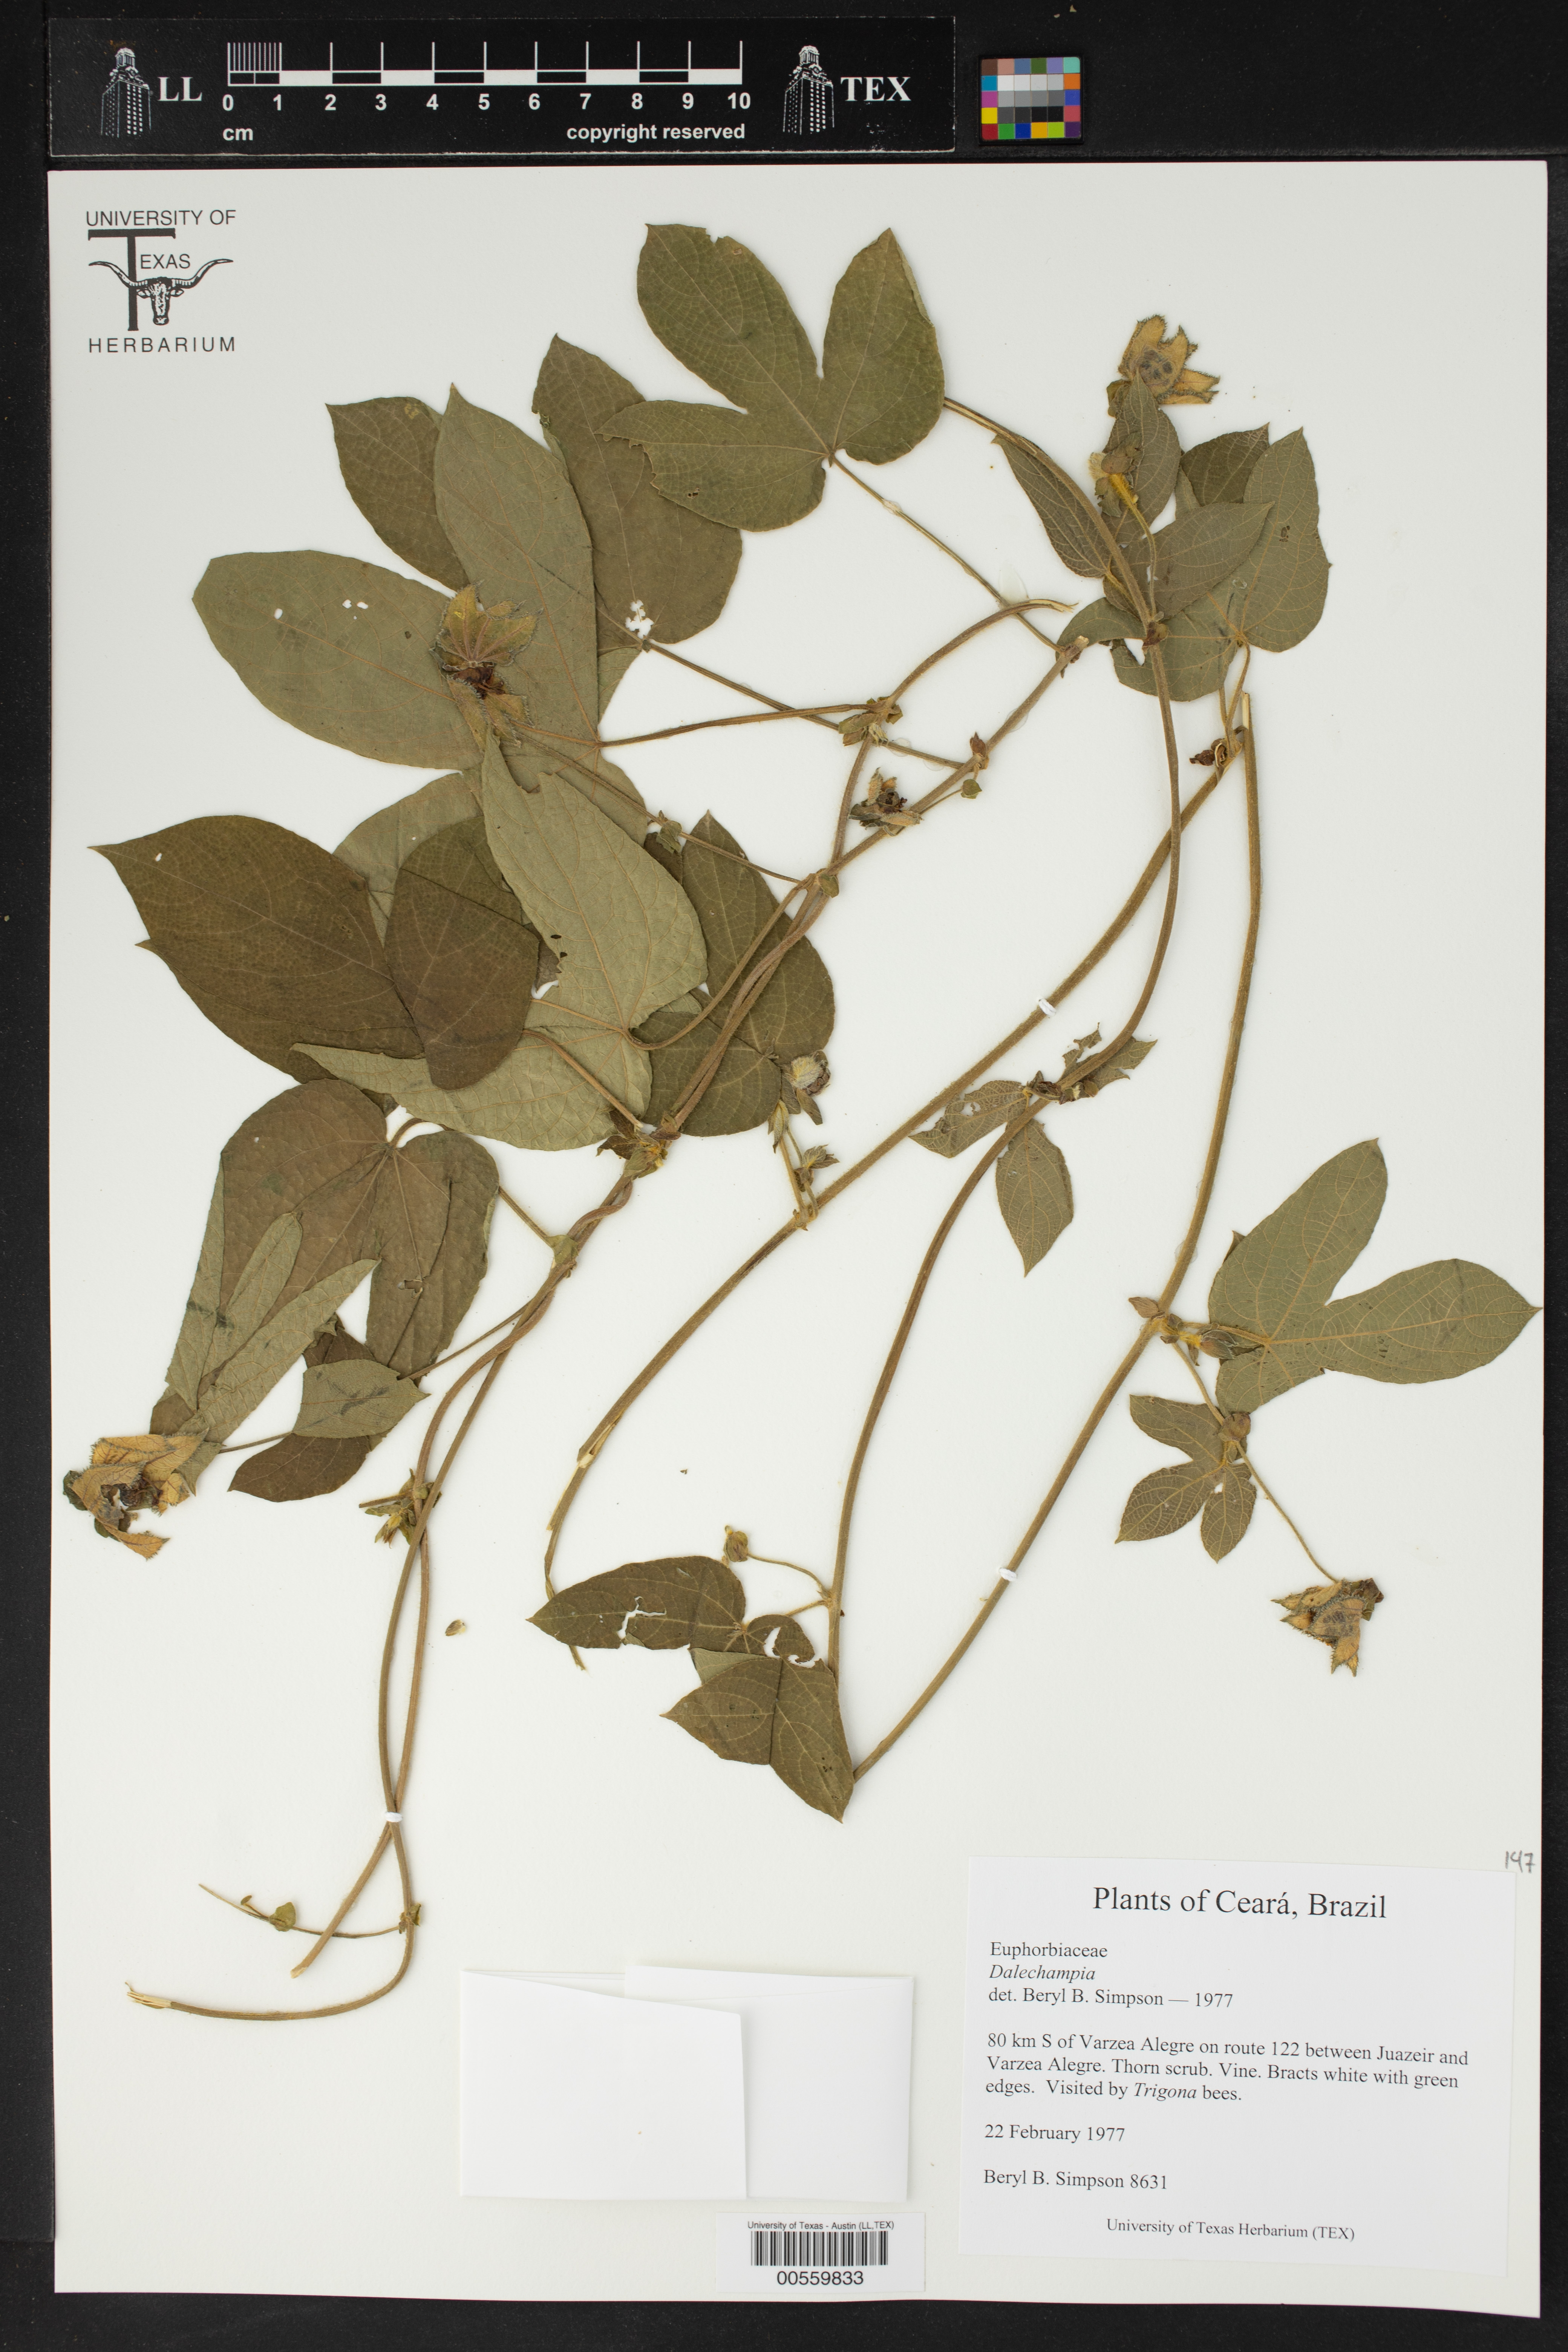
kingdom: Plantae
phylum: Tracheophyta
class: Magnoliopsida
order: Malpighiales
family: Euphorbiaceae
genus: Dalechampia
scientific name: Dalechampia
